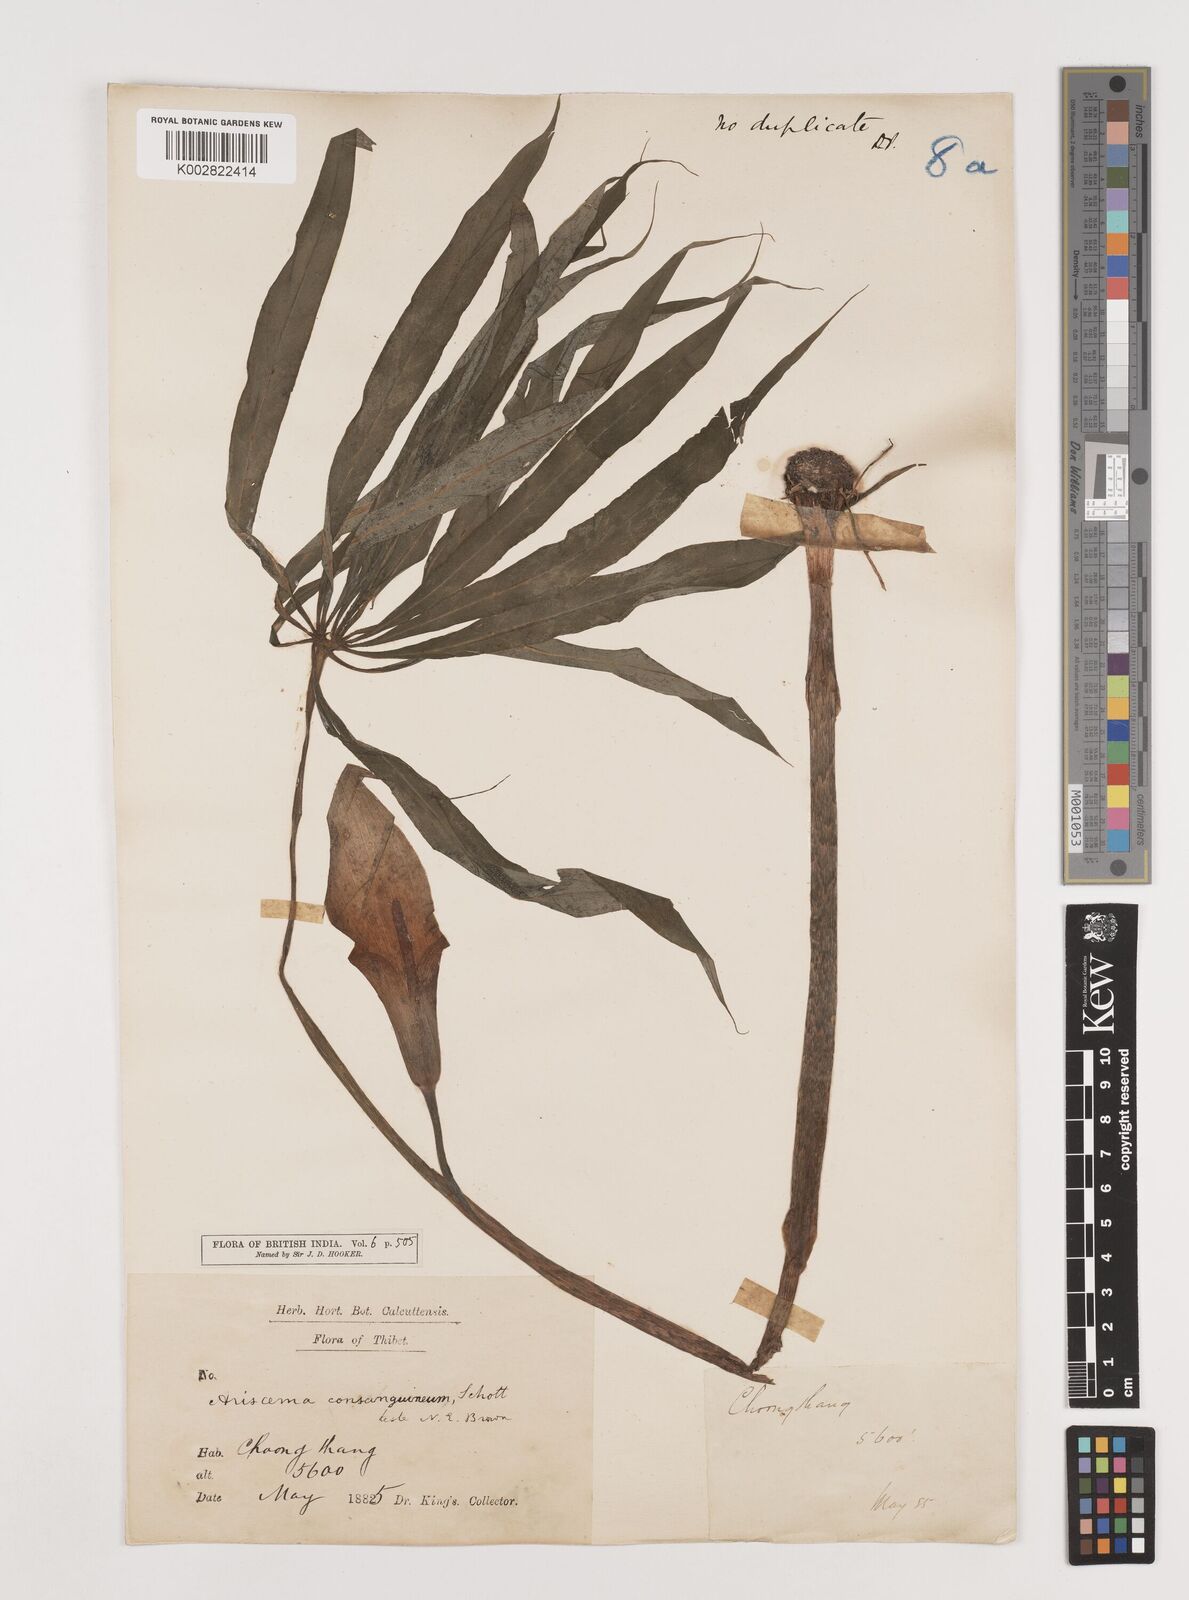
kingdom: Plantae
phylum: Tracheophyta
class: Liliopsida
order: Alismatales
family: Araceae
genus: Arisaema
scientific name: Arisaema erubescens
